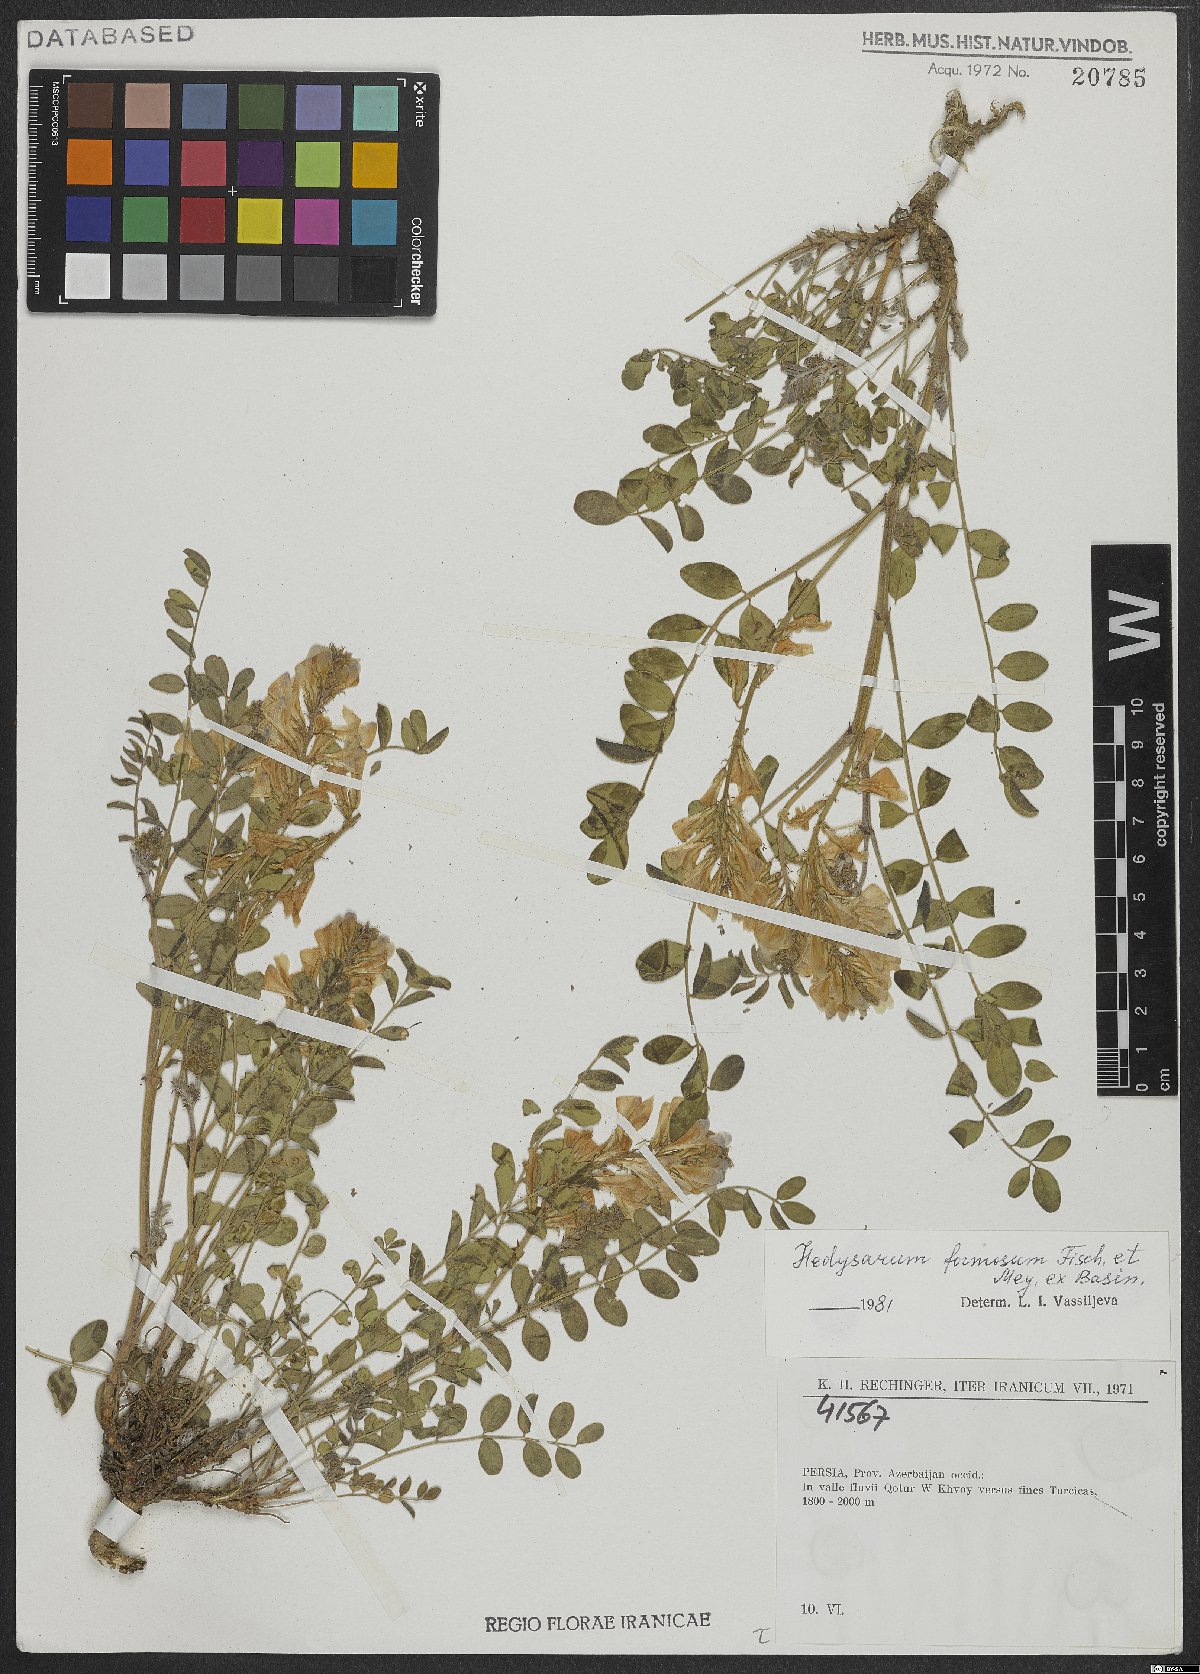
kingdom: Plantae
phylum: Tracheophyta
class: Magnoliopsida
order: Fabales
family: Fabaceae
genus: Hedysarum
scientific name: Hedysarum formosum
